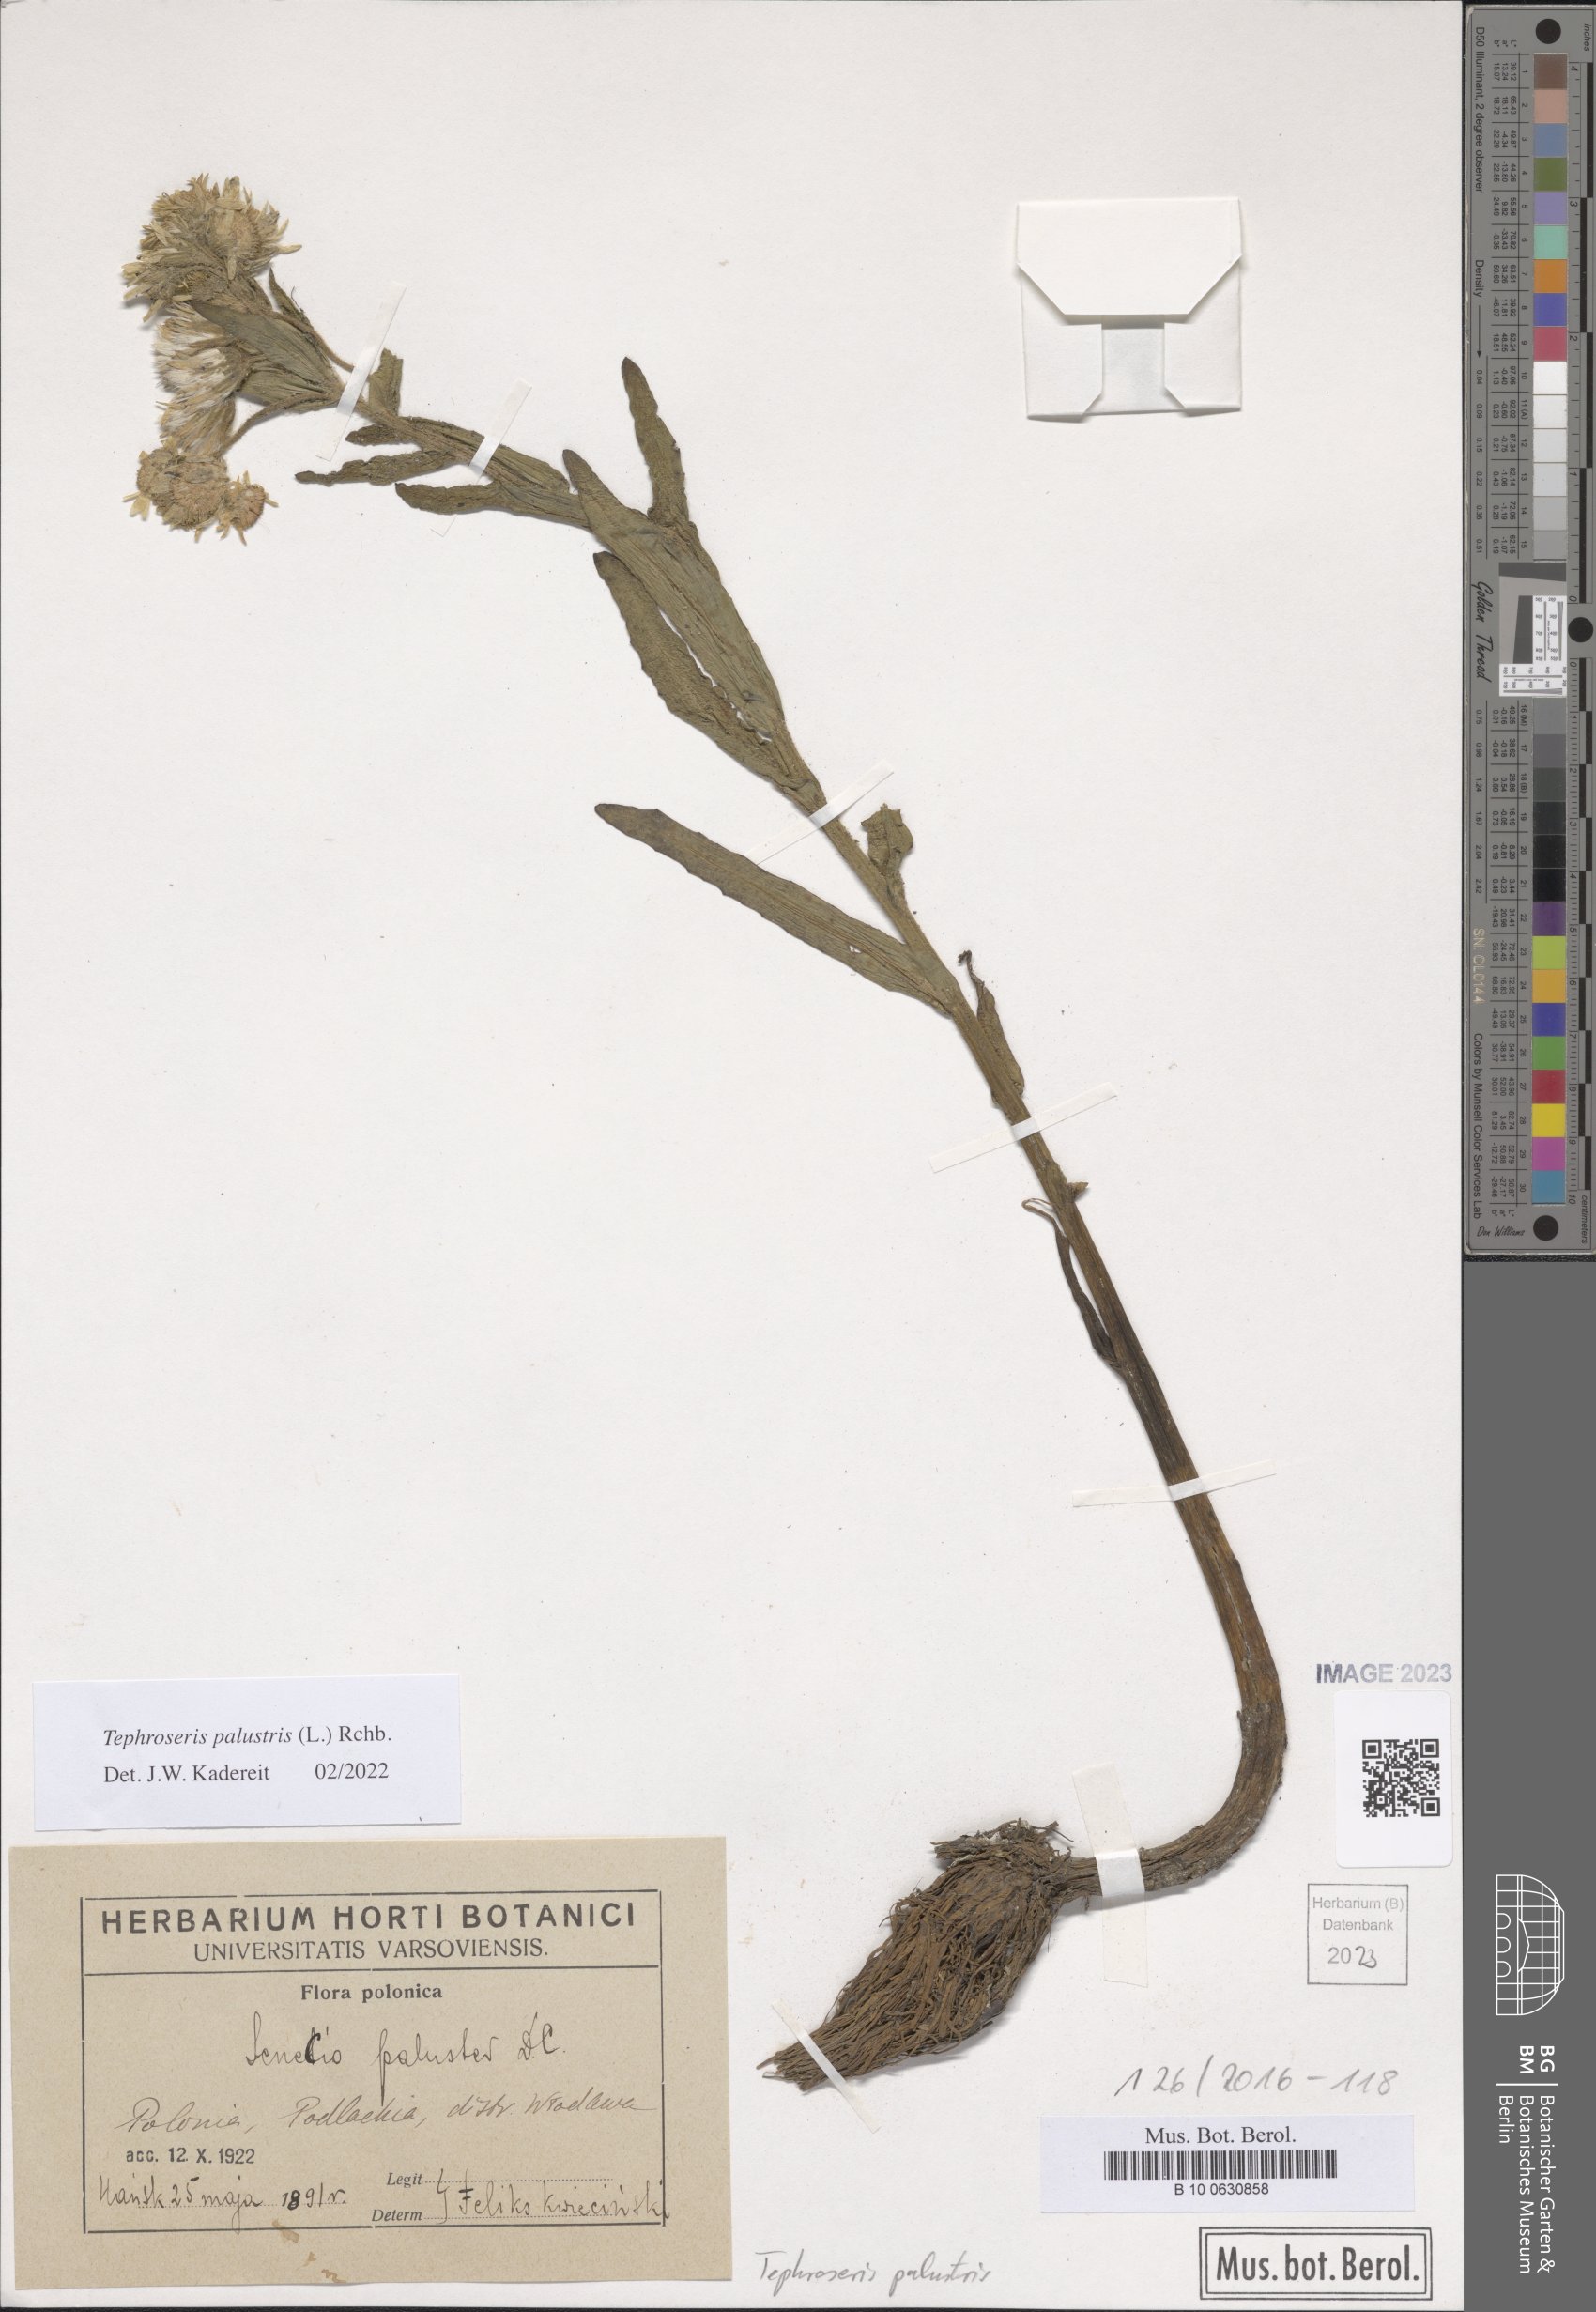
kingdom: Plantae
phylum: Tracheophyta
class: Magnoliopsida
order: Asterales
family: Asteraceae
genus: Tephroseris
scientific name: Tephroseris palustris
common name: Marsh fleawort
